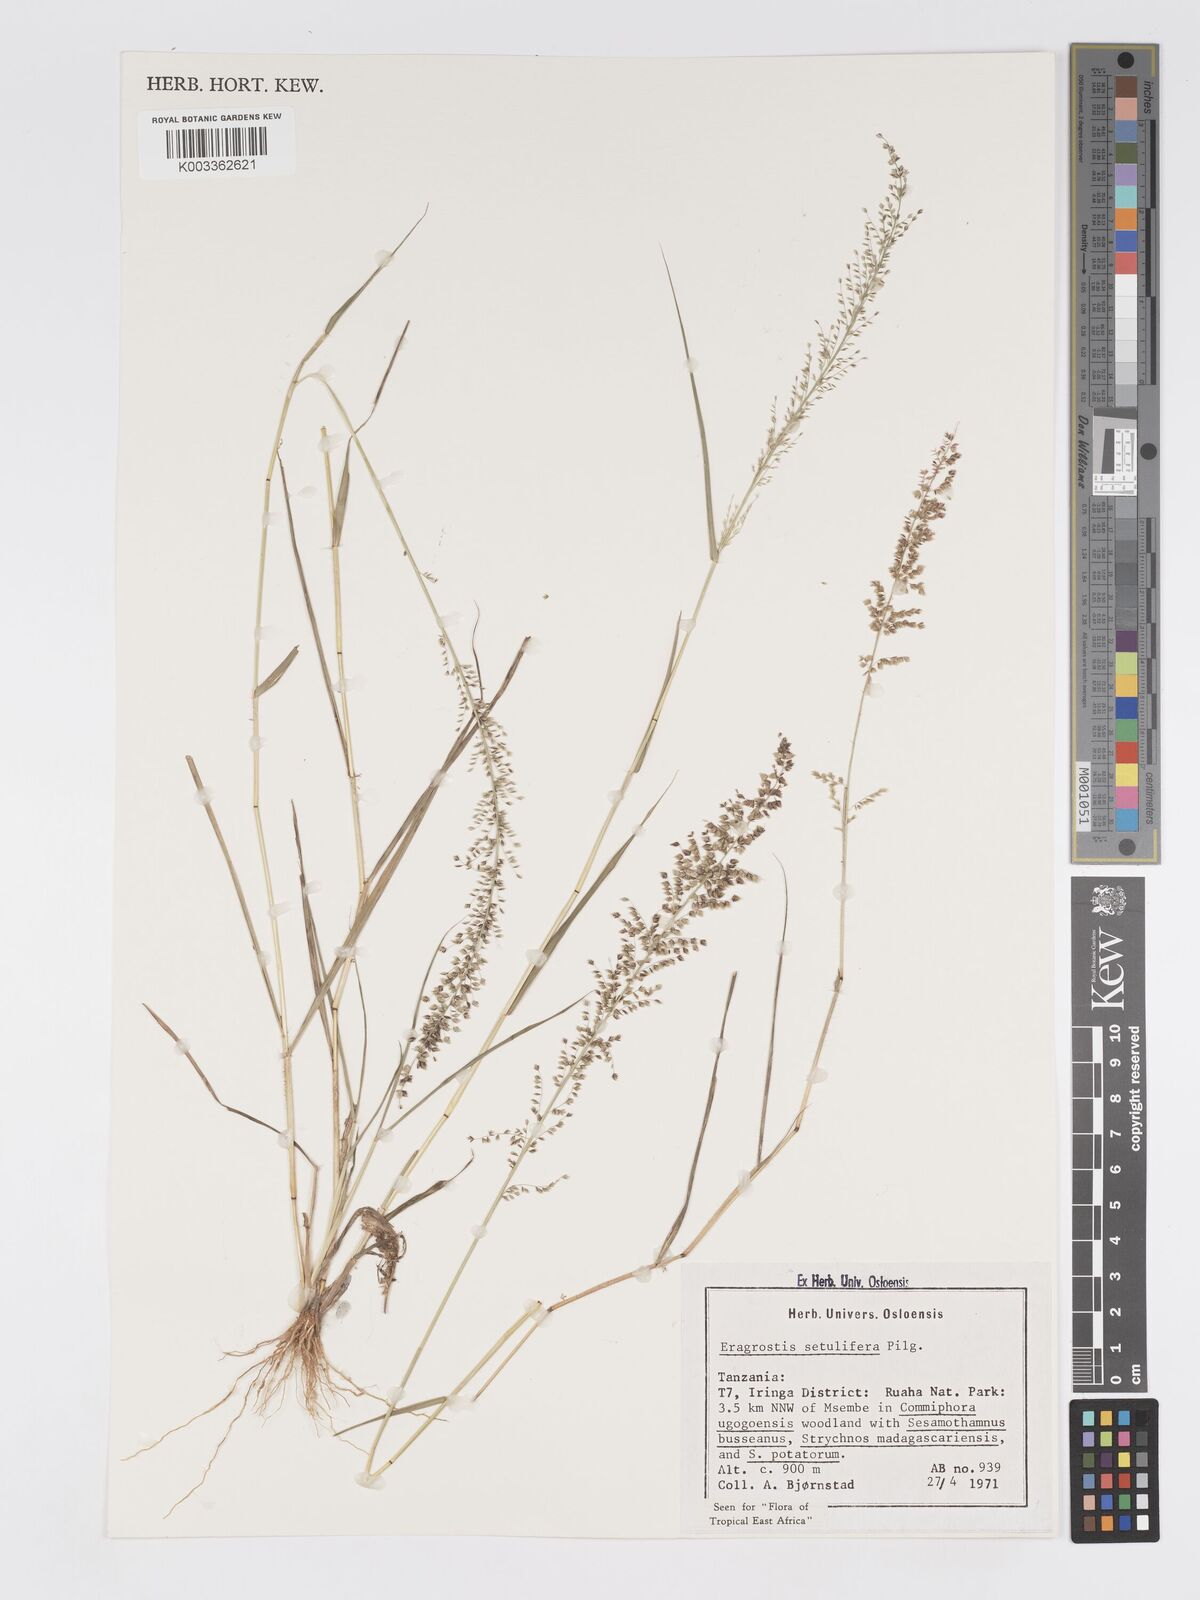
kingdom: Plantae
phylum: Tracheophyta
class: Liliopsida
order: Poales
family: Poaceae
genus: Eragrostis
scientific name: Eragrostis setulifera
